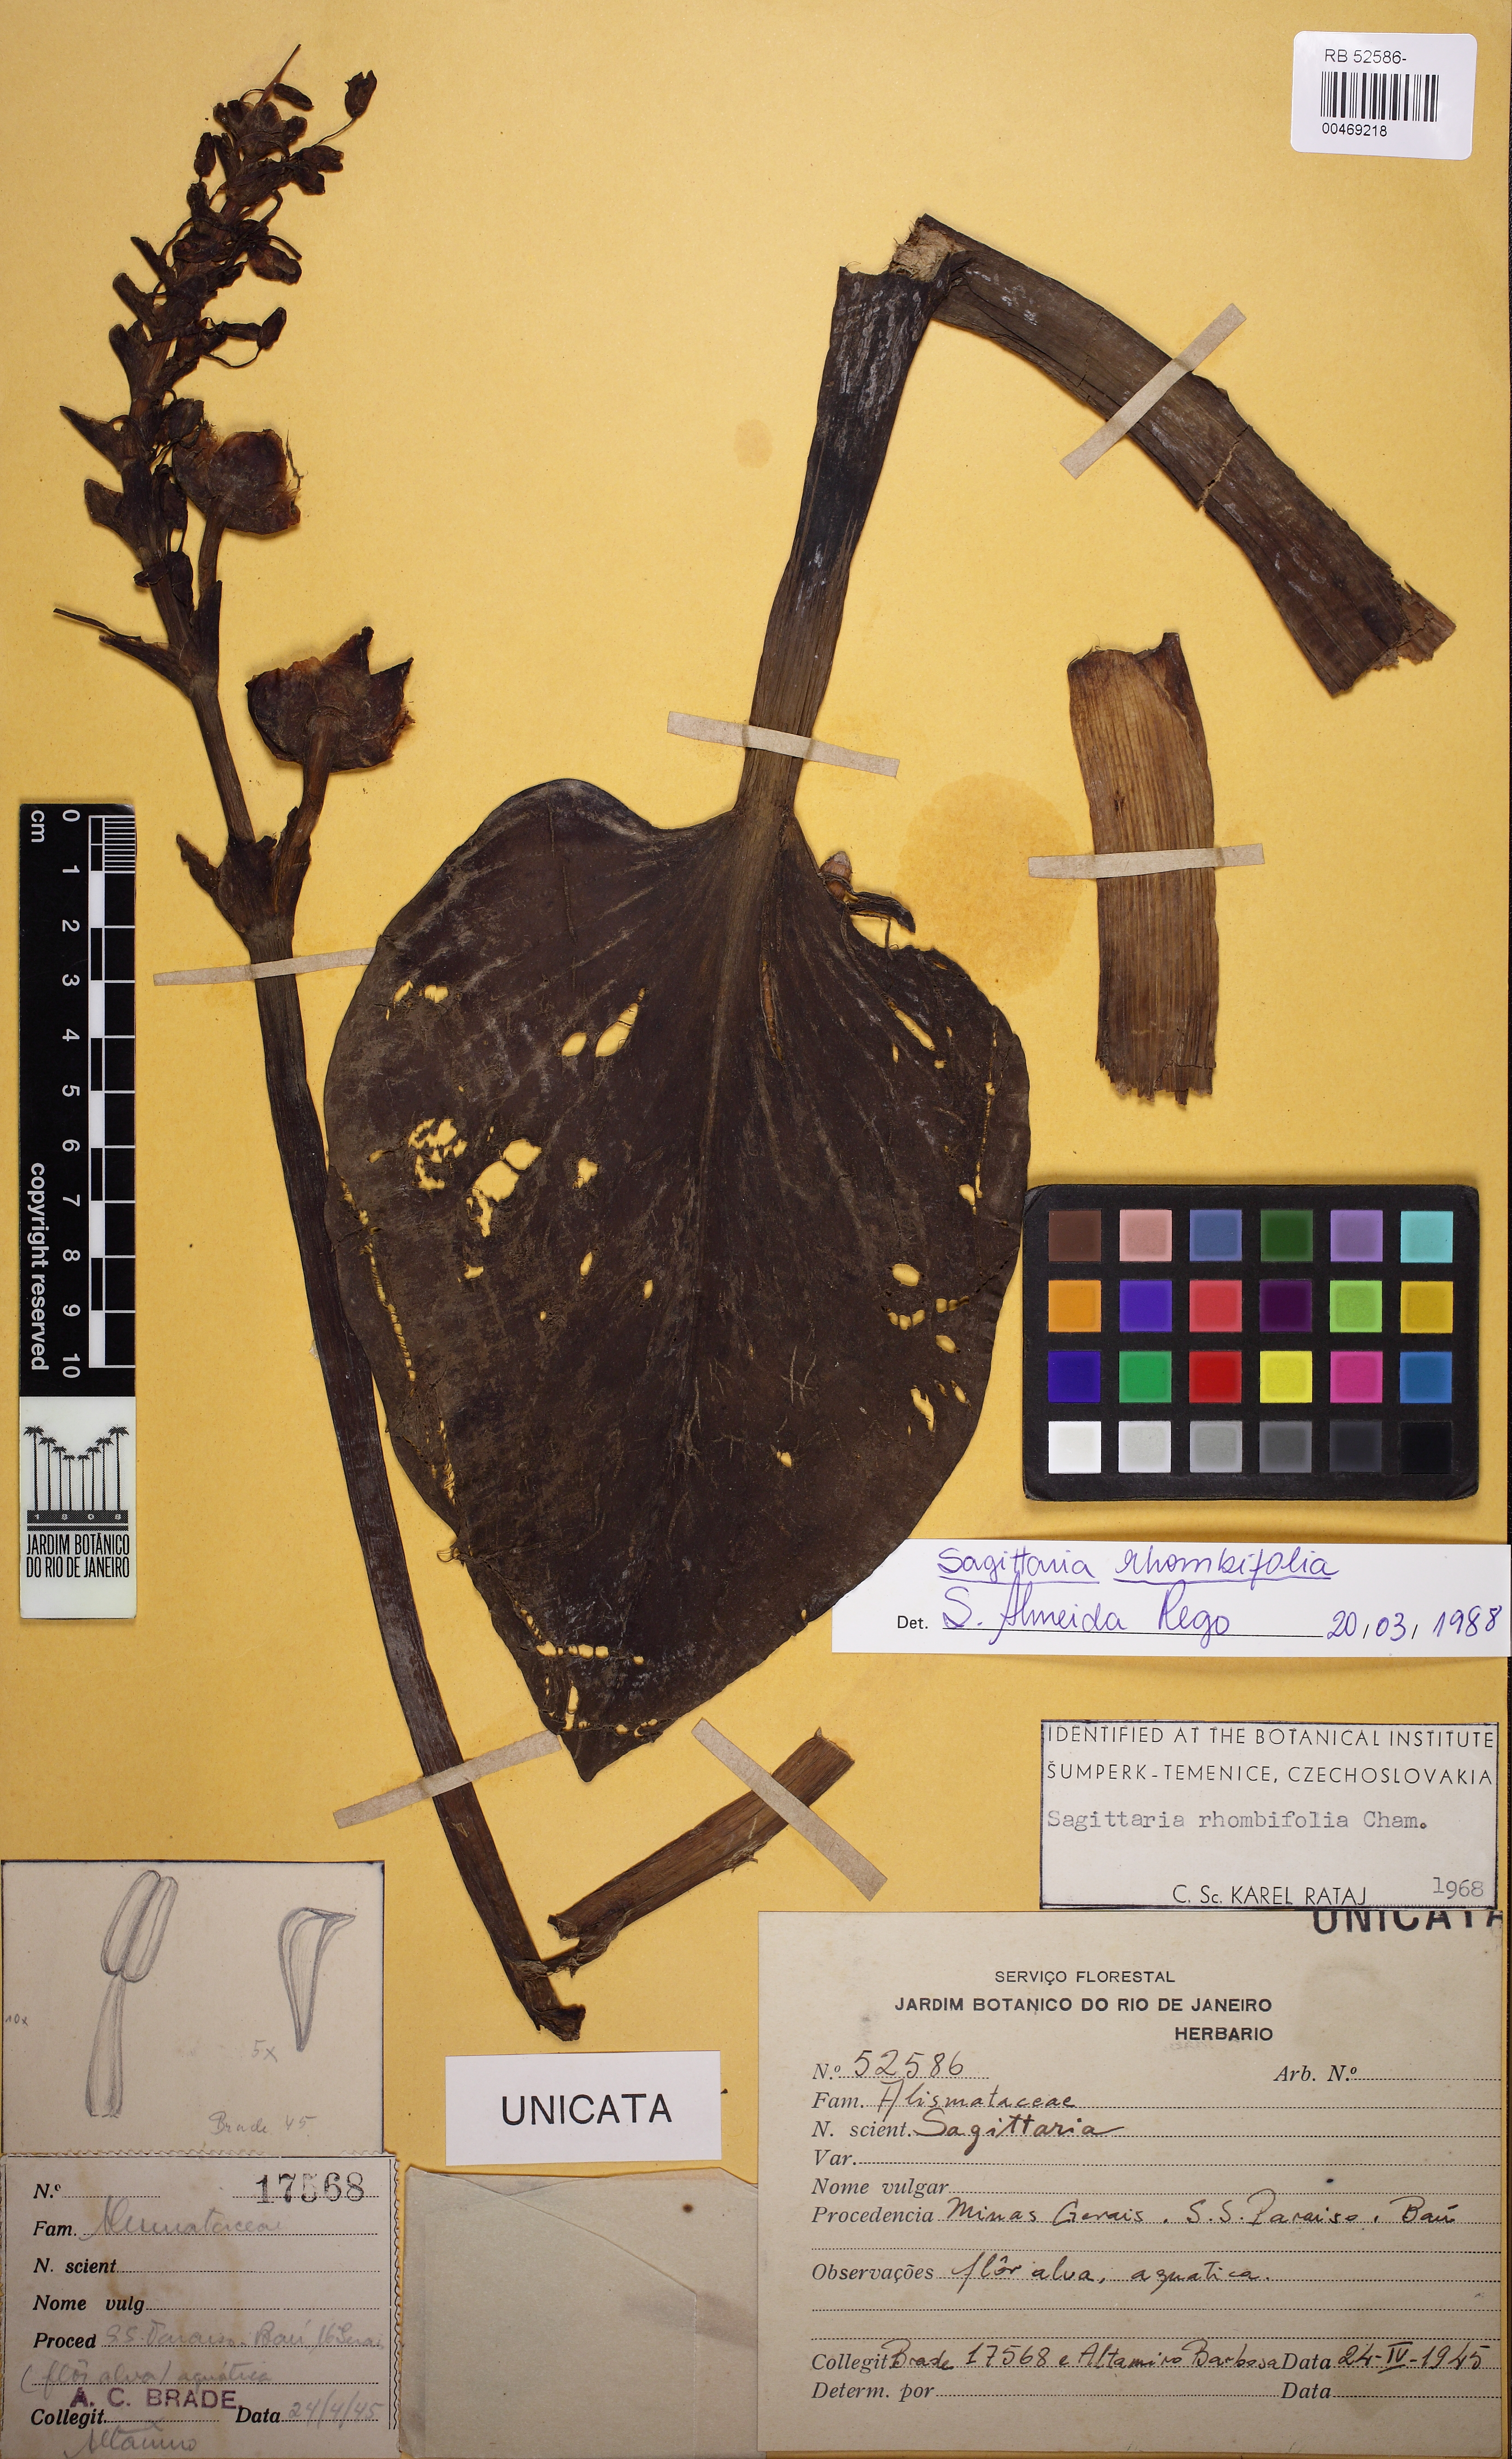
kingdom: Plantae
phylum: Tracheophyta
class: Liliopsida
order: Alismatales
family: Alismataceae
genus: Sagittaria
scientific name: Sagittaria rhombifolia
